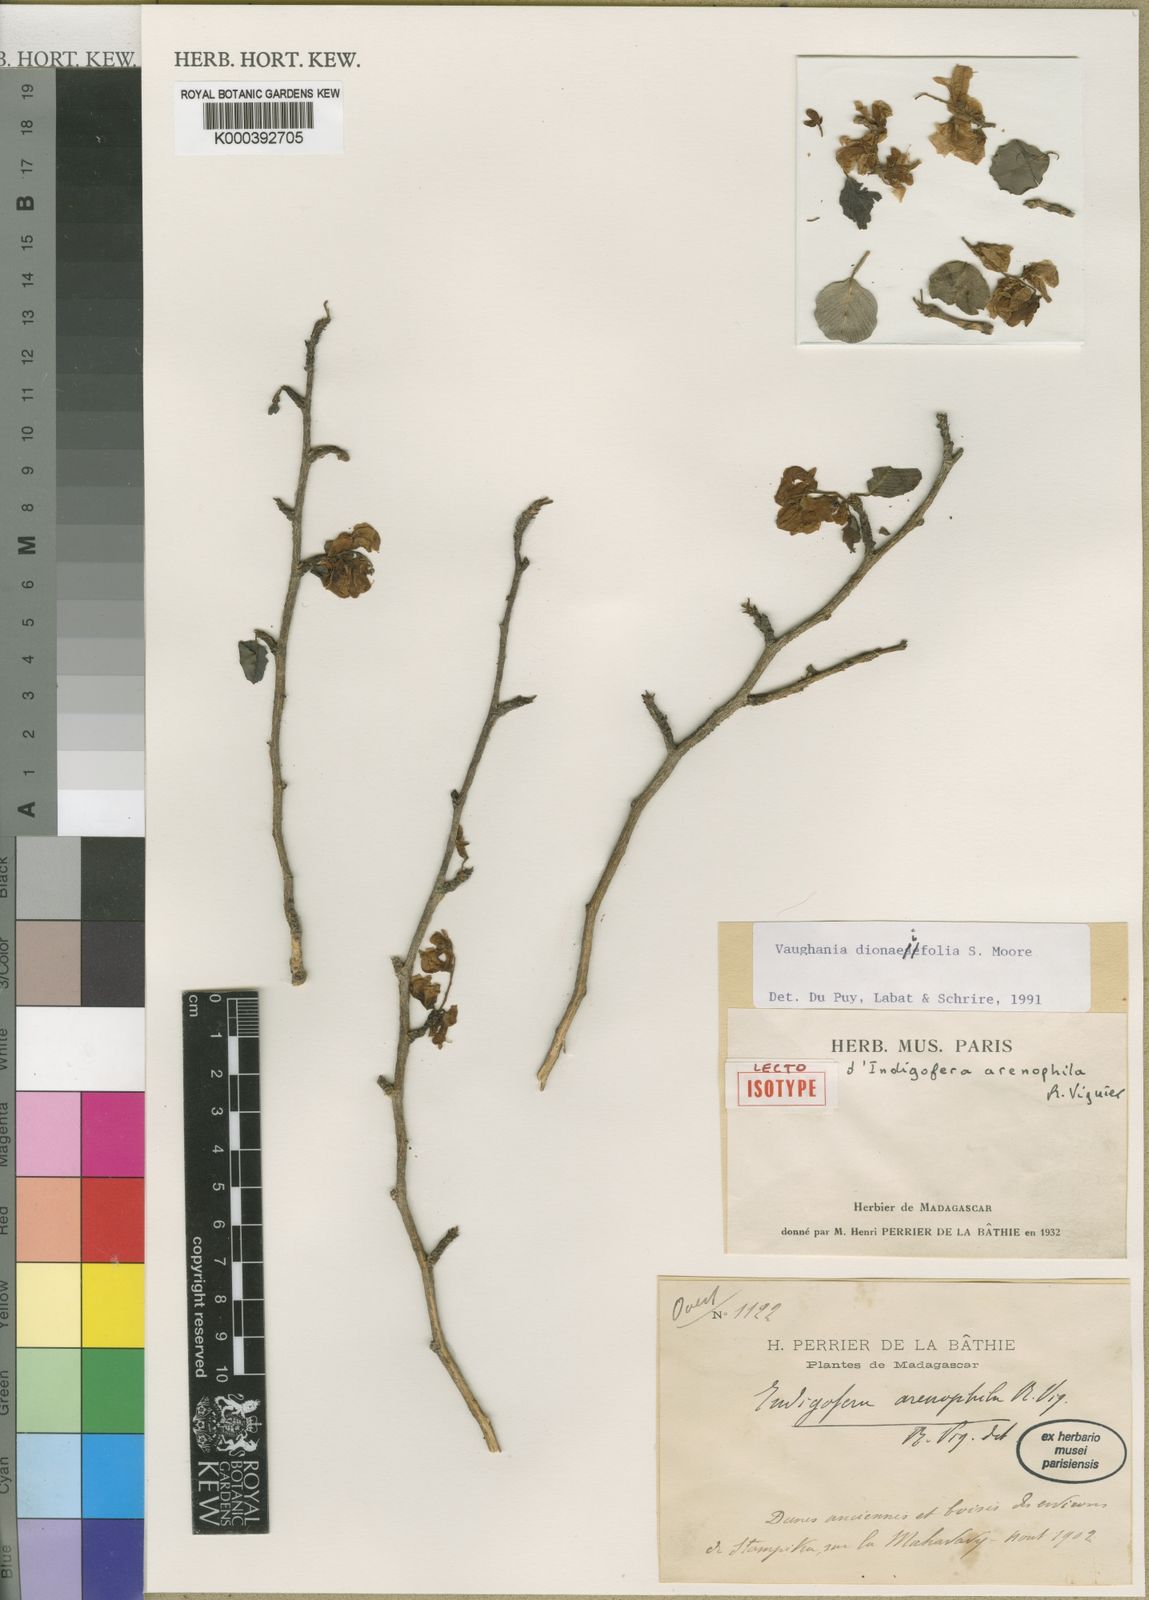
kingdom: Plantae
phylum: Tracheophyta
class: Magnoliopsida
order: Fabales
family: Fabaceae
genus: Indigofera
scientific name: Indigofera dionaeifolia
